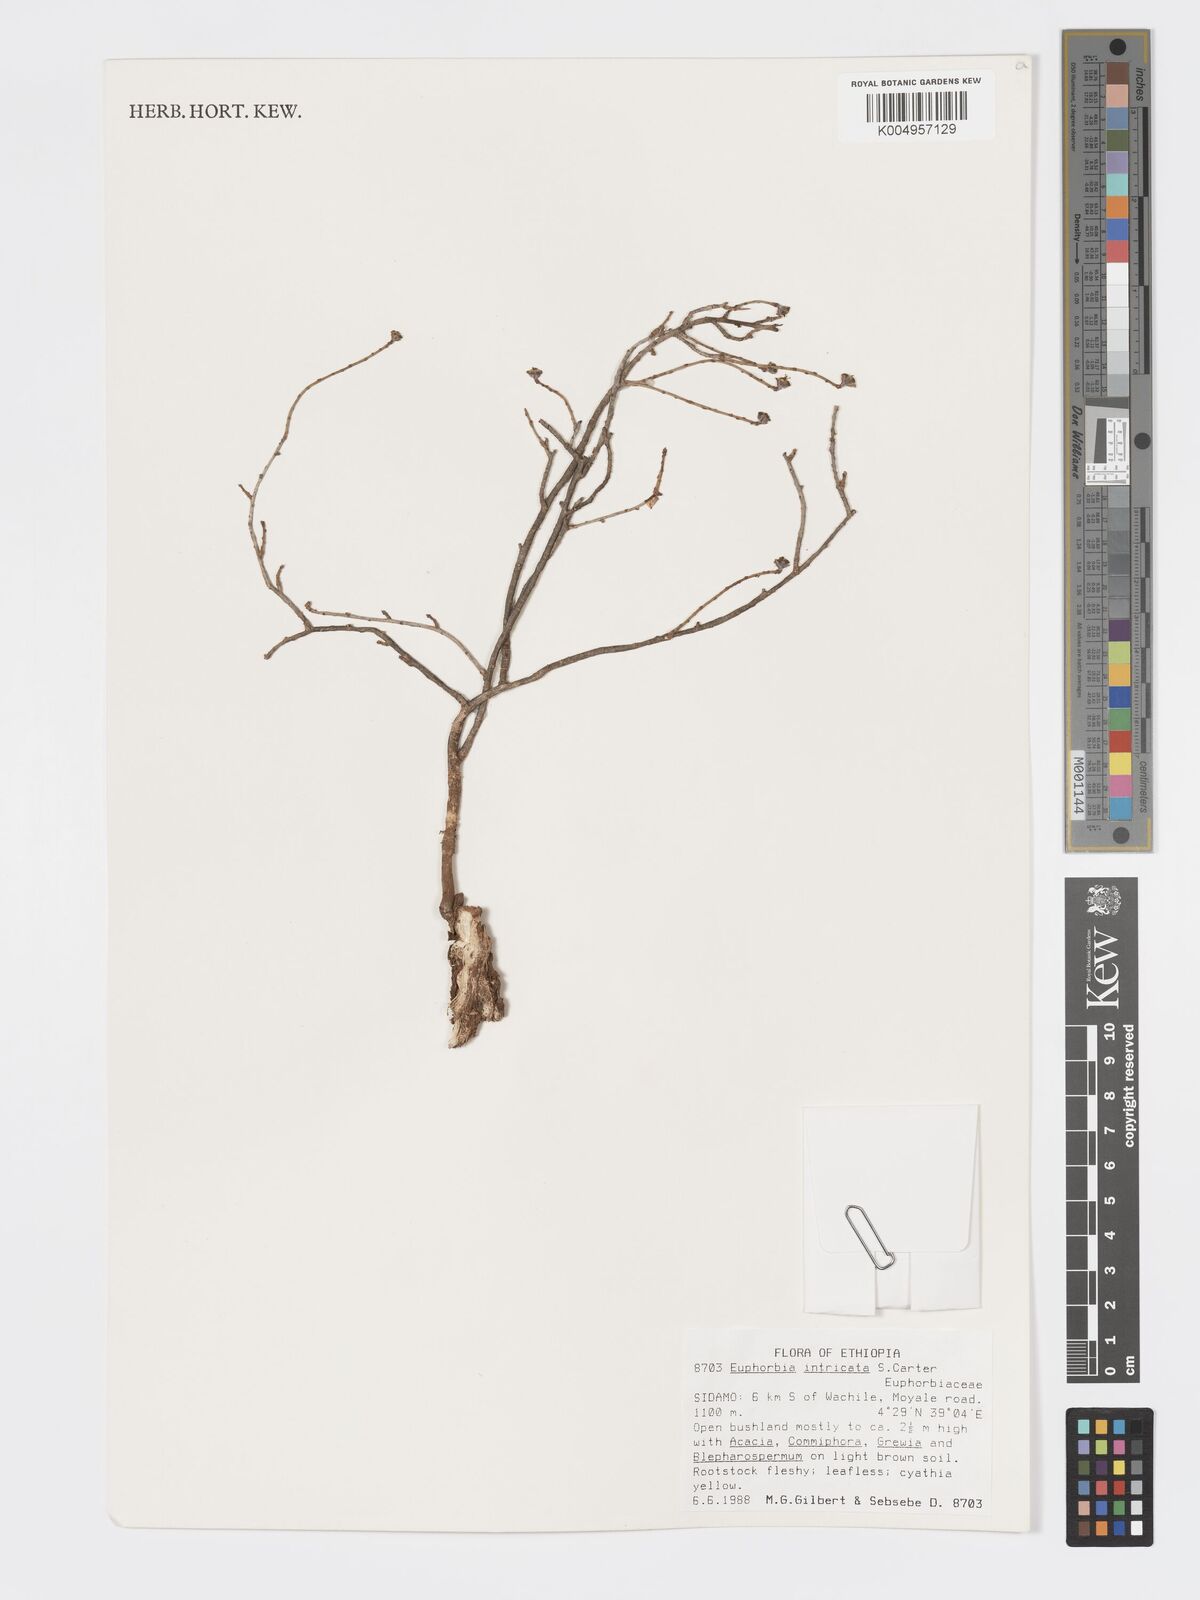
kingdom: Plantae
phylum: Tracheophyta
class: Magnoliopsida
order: Malpighiales
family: Euphorbiaceae
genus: Euphorbia
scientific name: Euphorbia intricata
